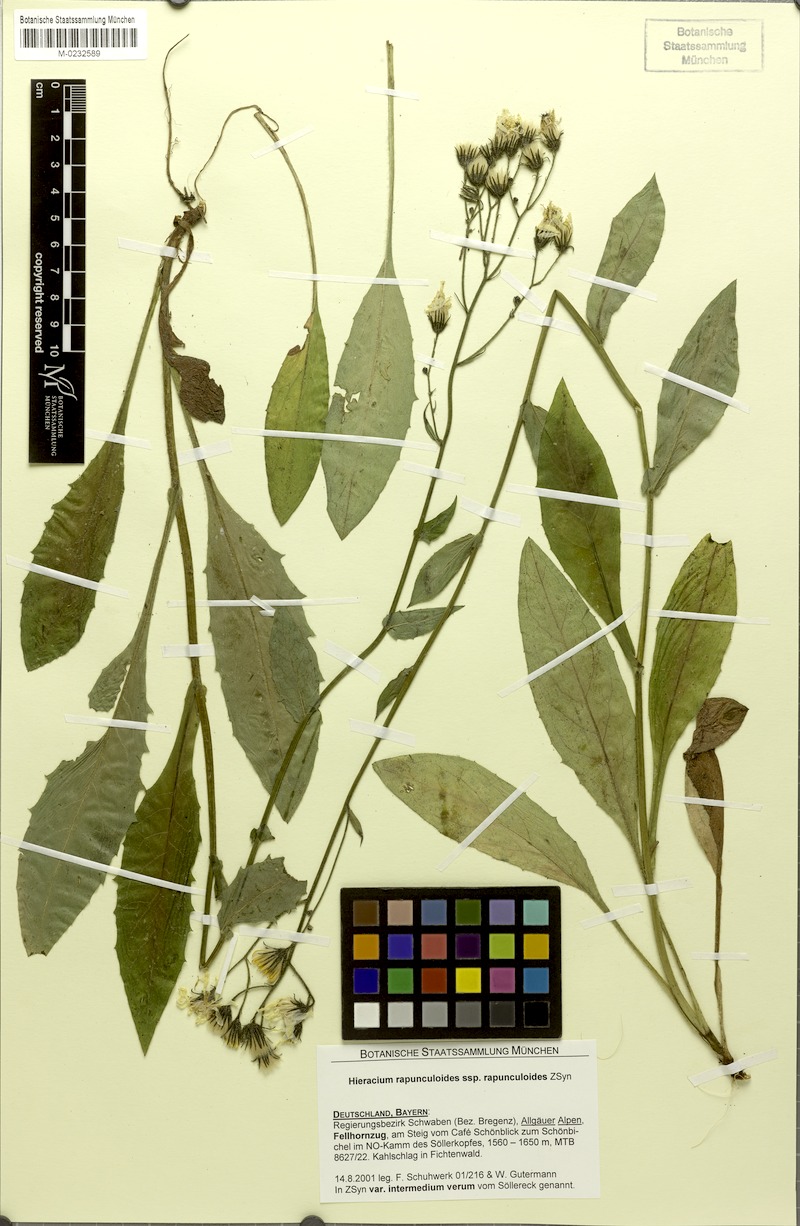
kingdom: Plantae
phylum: Tracheophyta
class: Magnoliopsida
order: Asterales
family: Asteraceae
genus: Hieracium
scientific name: Hieracium rapunculoides
